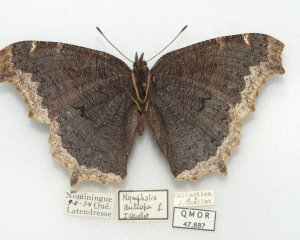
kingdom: Animalia
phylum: Arthropoda
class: Insecta
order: Lepidoptera
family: Nymphalidae
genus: Nymphalis
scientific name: Nymphalis antiopa
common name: Mourning Cloak
